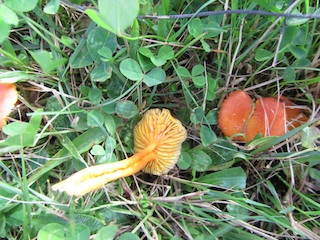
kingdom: Fungi
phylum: Basidiomycota
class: Agaricomycetes
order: Agaricales
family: Hygrophoraceae
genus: Hygrocybe
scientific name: Hygrocybe miniata
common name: mønje-vokshat
